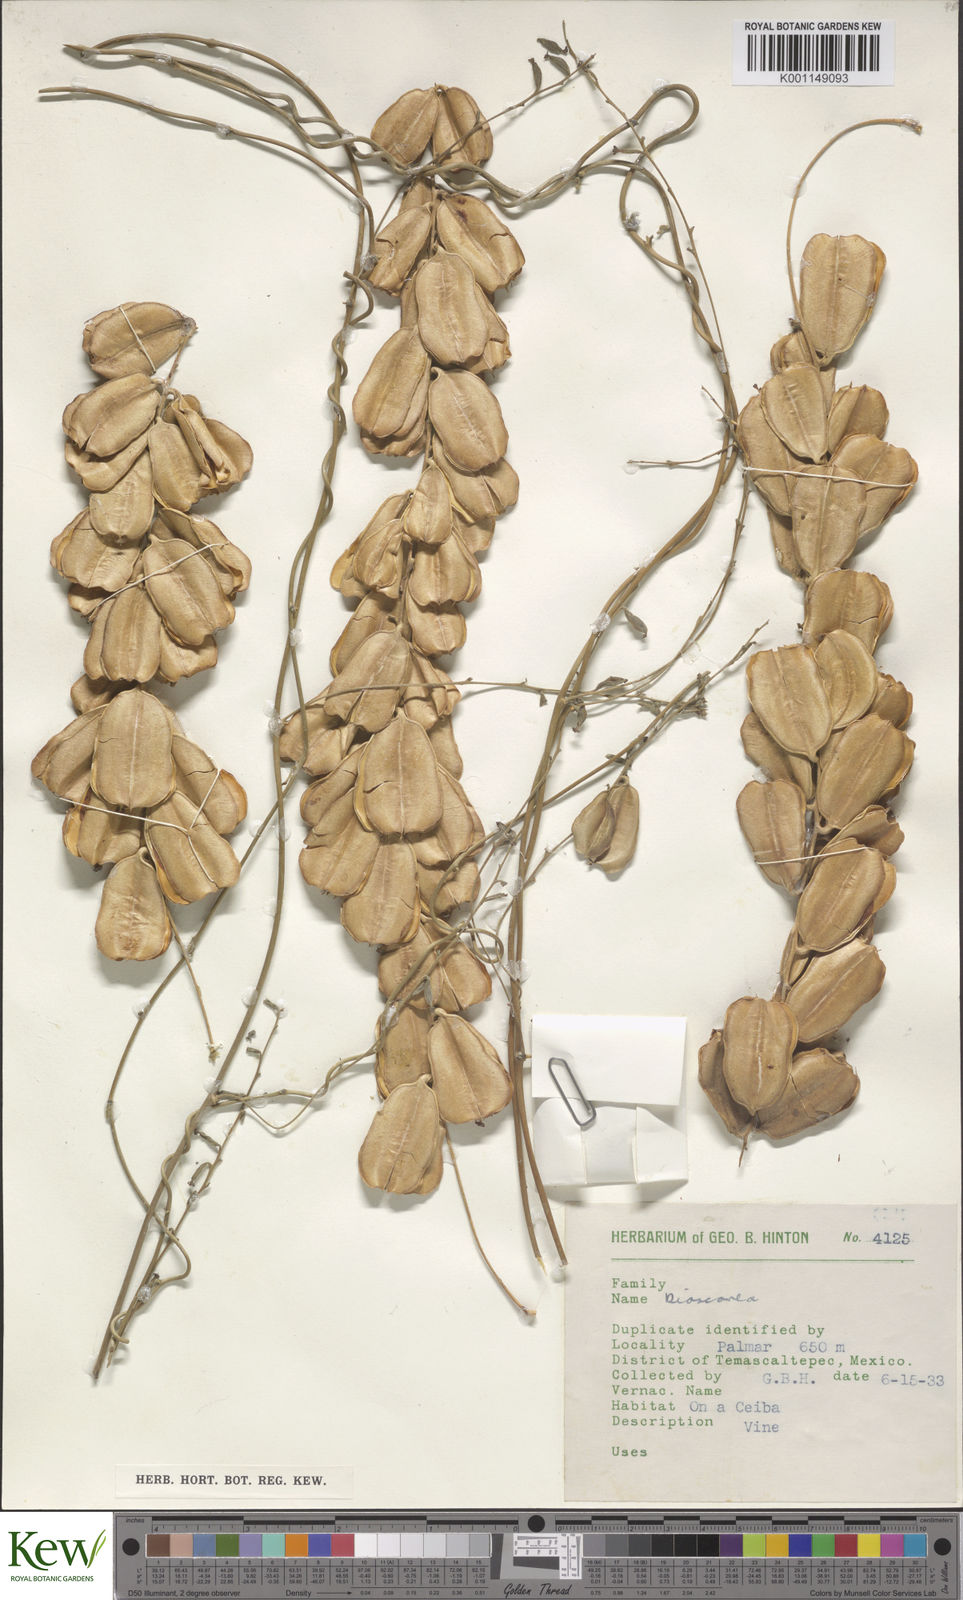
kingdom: Plantae
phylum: Tracheophyta
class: Liliopsida
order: Dioscoreales
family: Dioscoreaceae
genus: Dioscorea
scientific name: Dioscorea
